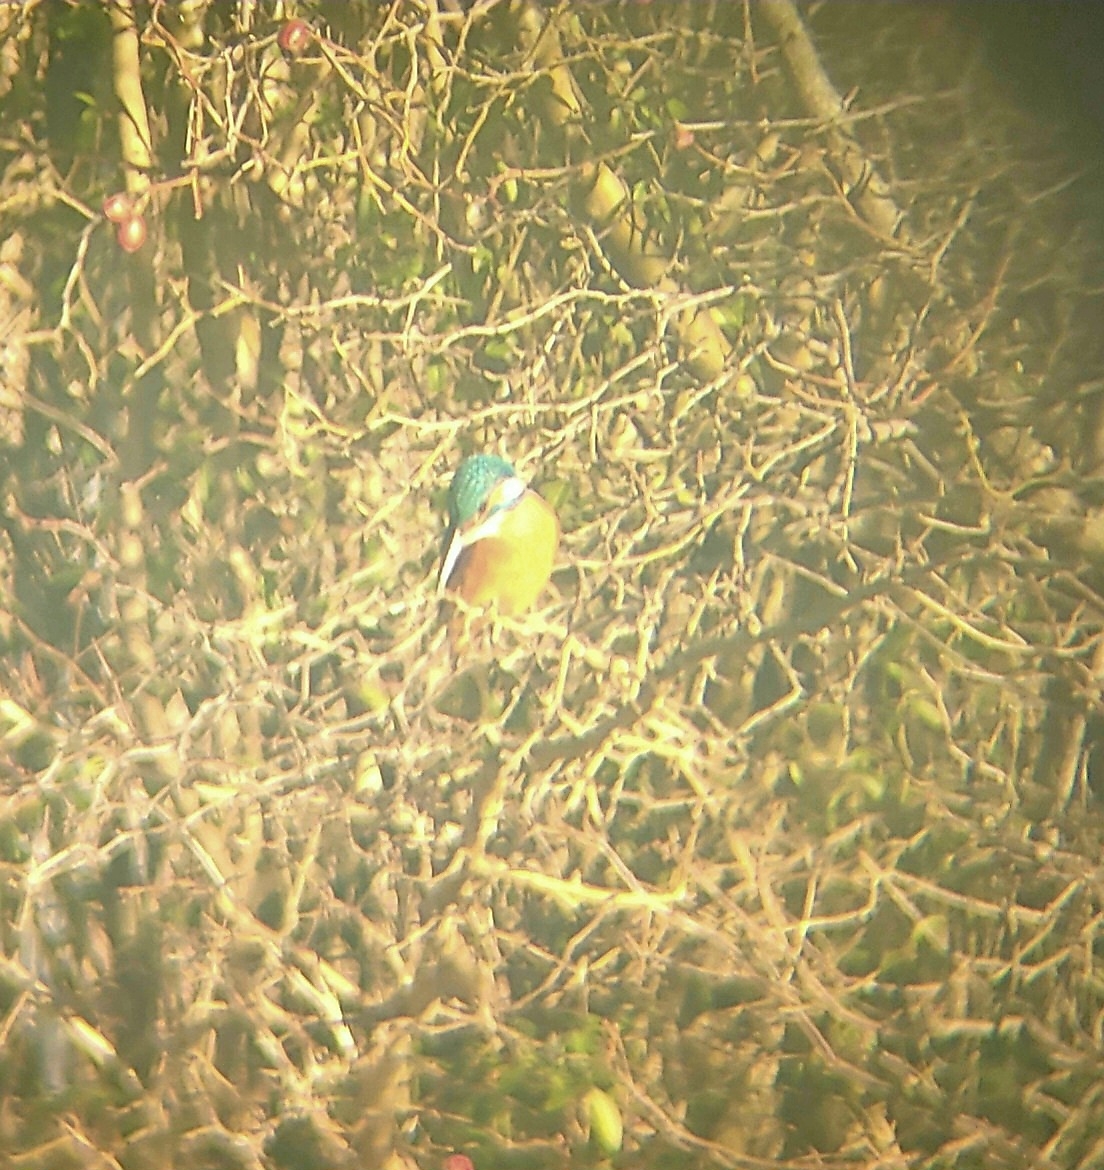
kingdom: Animalia
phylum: Chordata
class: Aves
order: Coraciiformes
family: Alcedinidae
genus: Alcedo
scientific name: Alcedo atthis
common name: Isfugl
